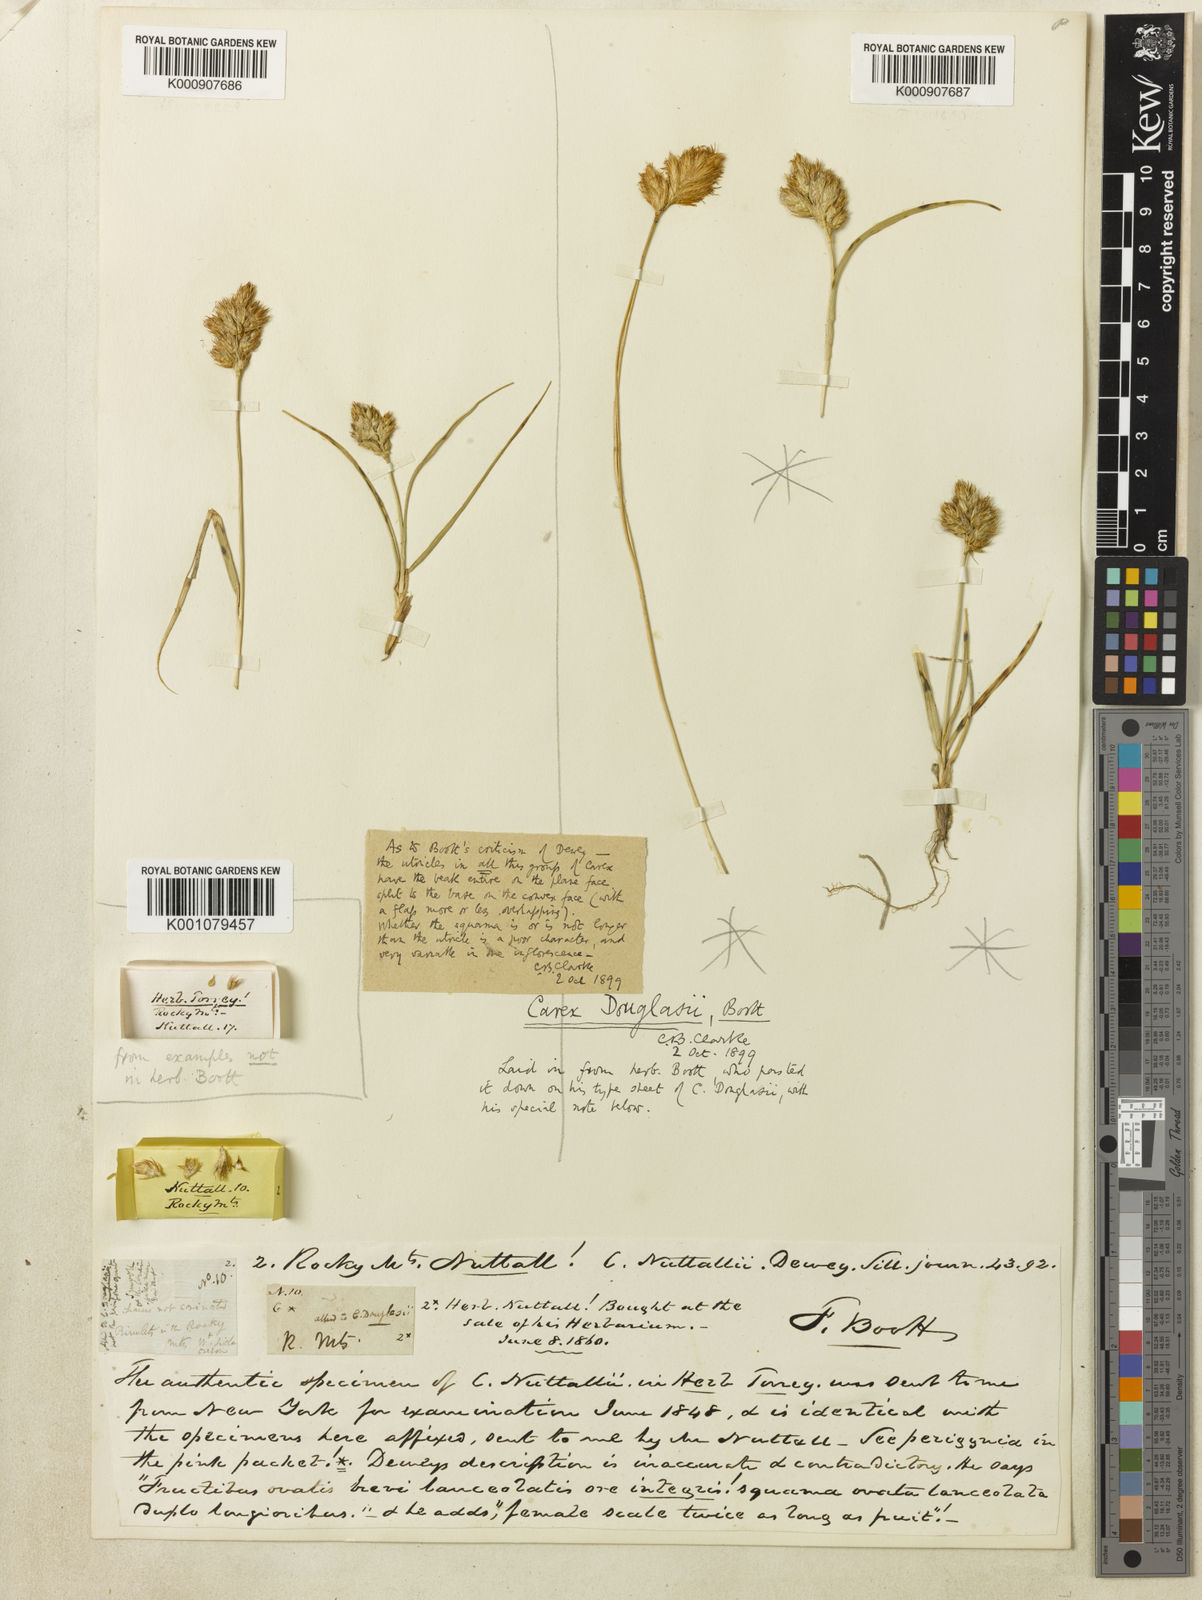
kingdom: Plantae
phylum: Tracheophyta
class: Liliopsida
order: Poales
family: Cyperaceae
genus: Carex
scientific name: Carex douglasii
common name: Douglas' sedge
